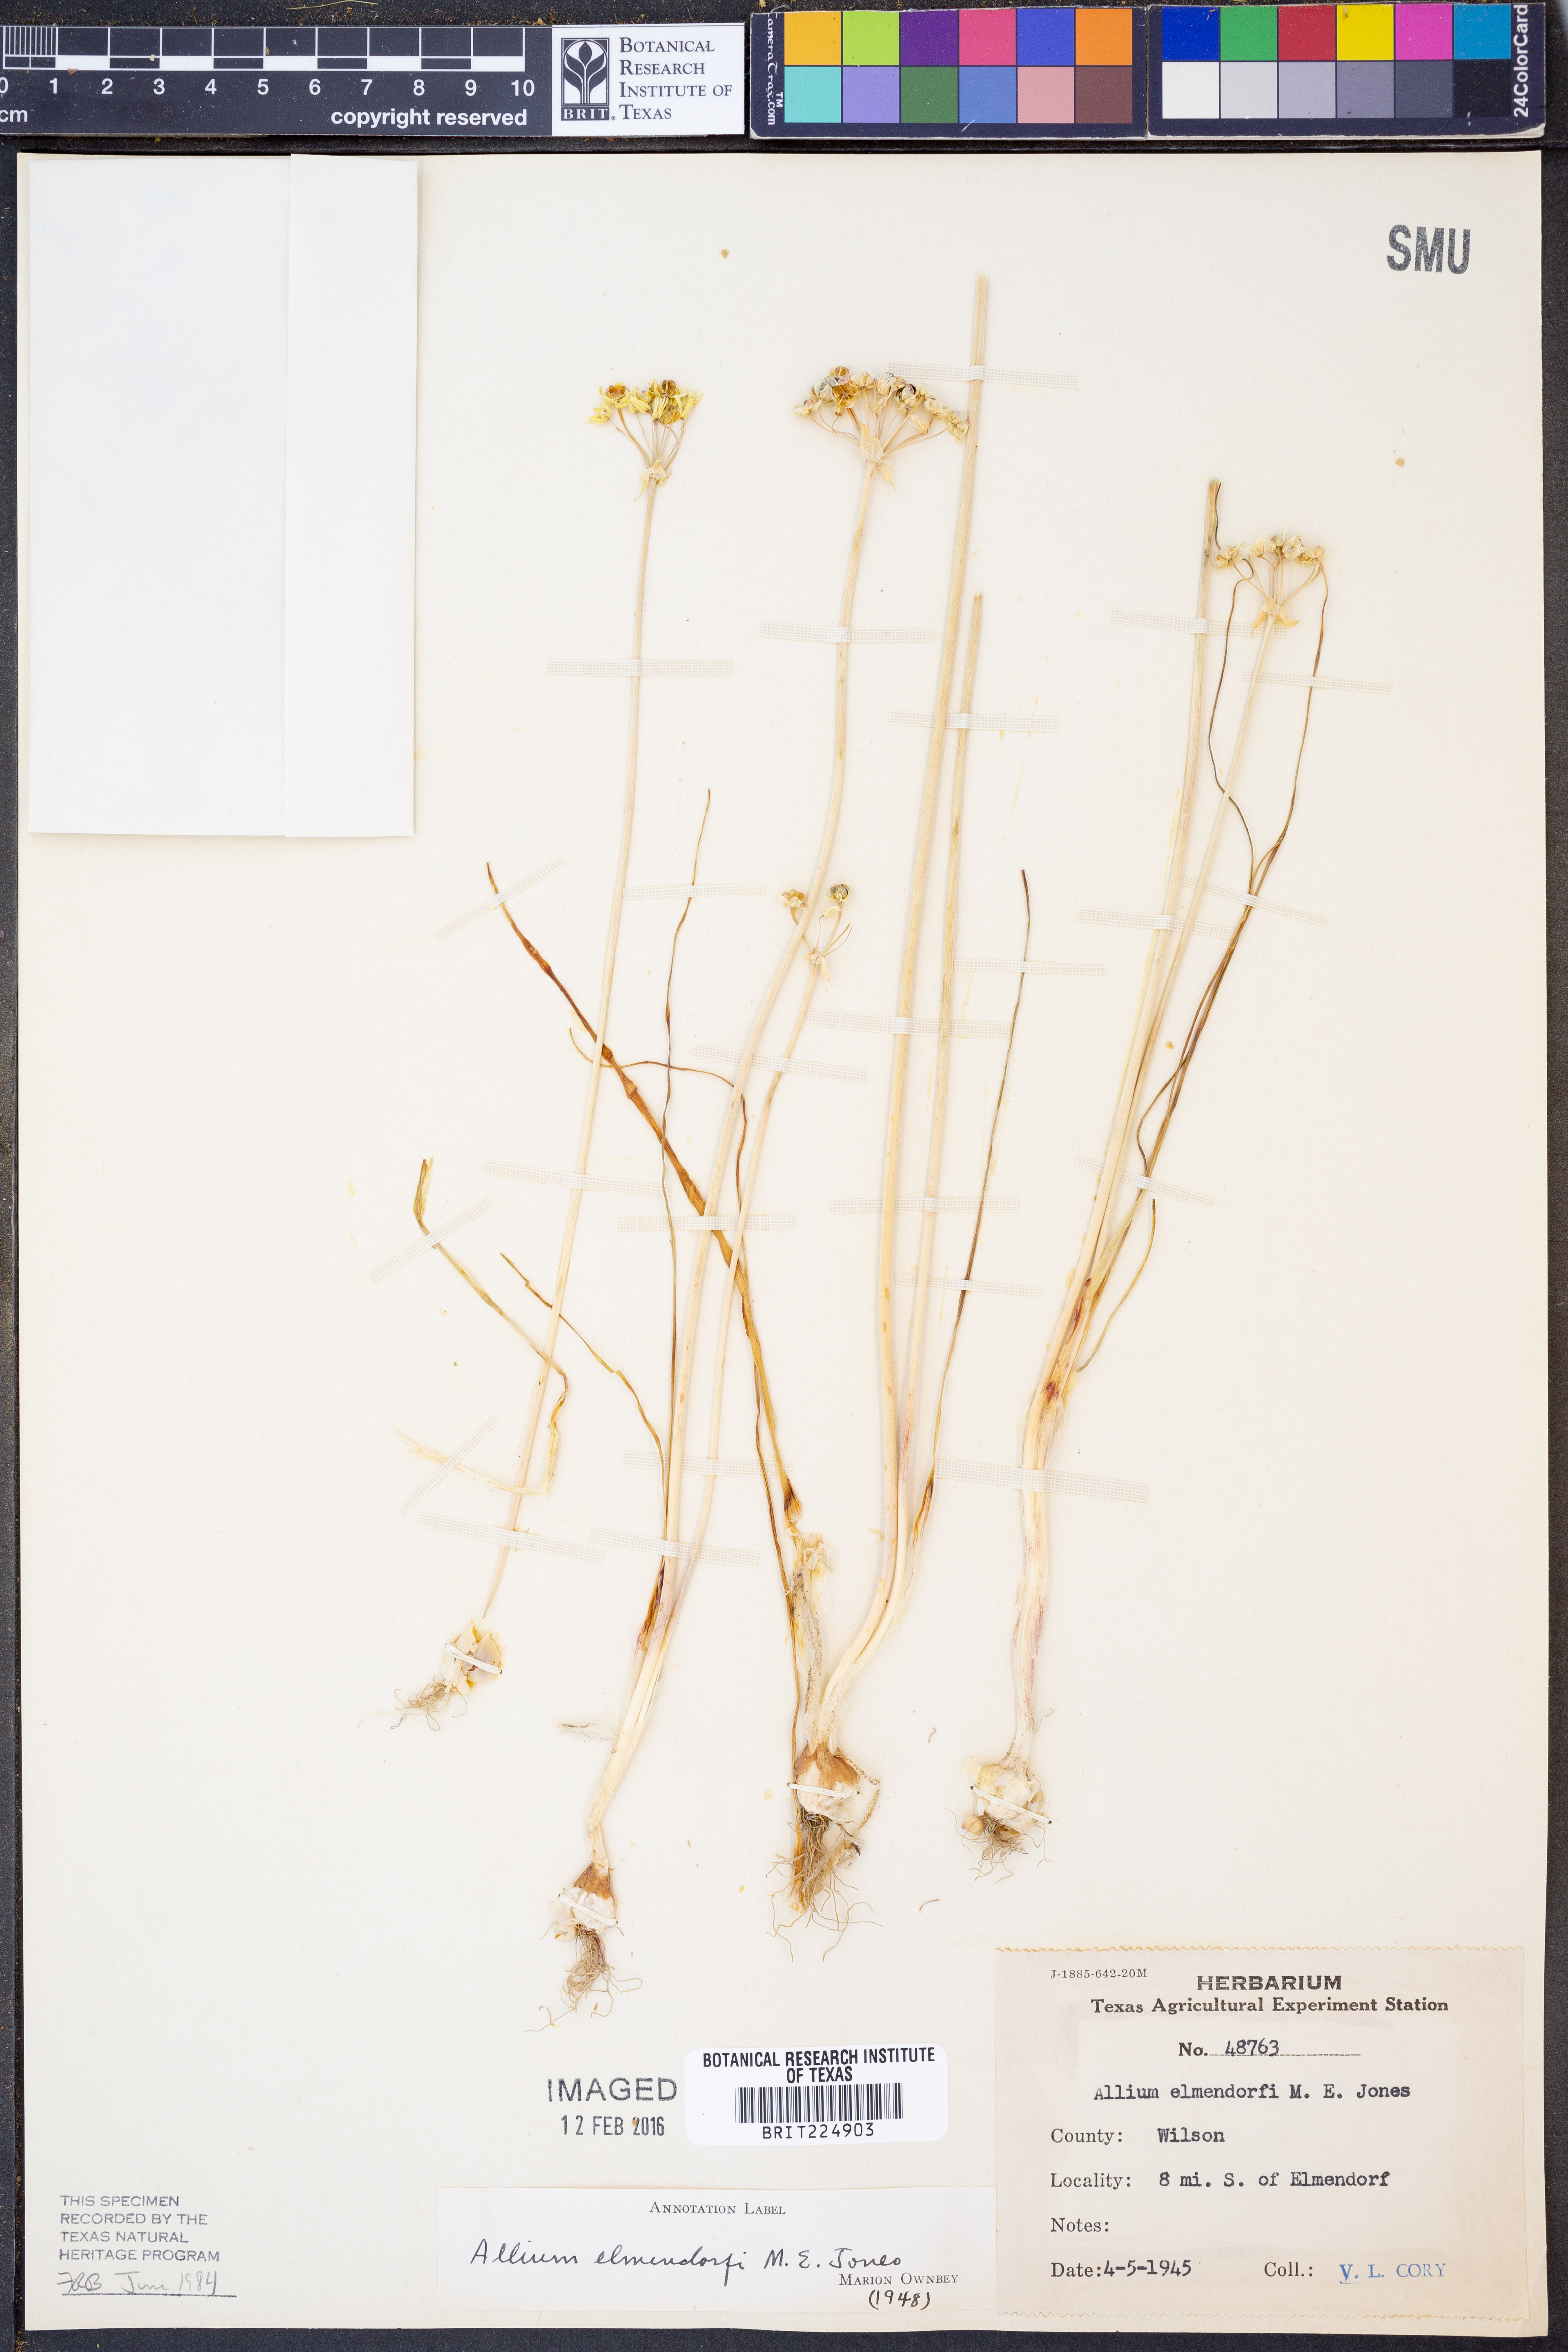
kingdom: Plantae
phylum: Tracheophyta
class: Liliopsida
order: Asparagales
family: Amaryllidaceae
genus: Allium
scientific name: Allium elmendorfii
